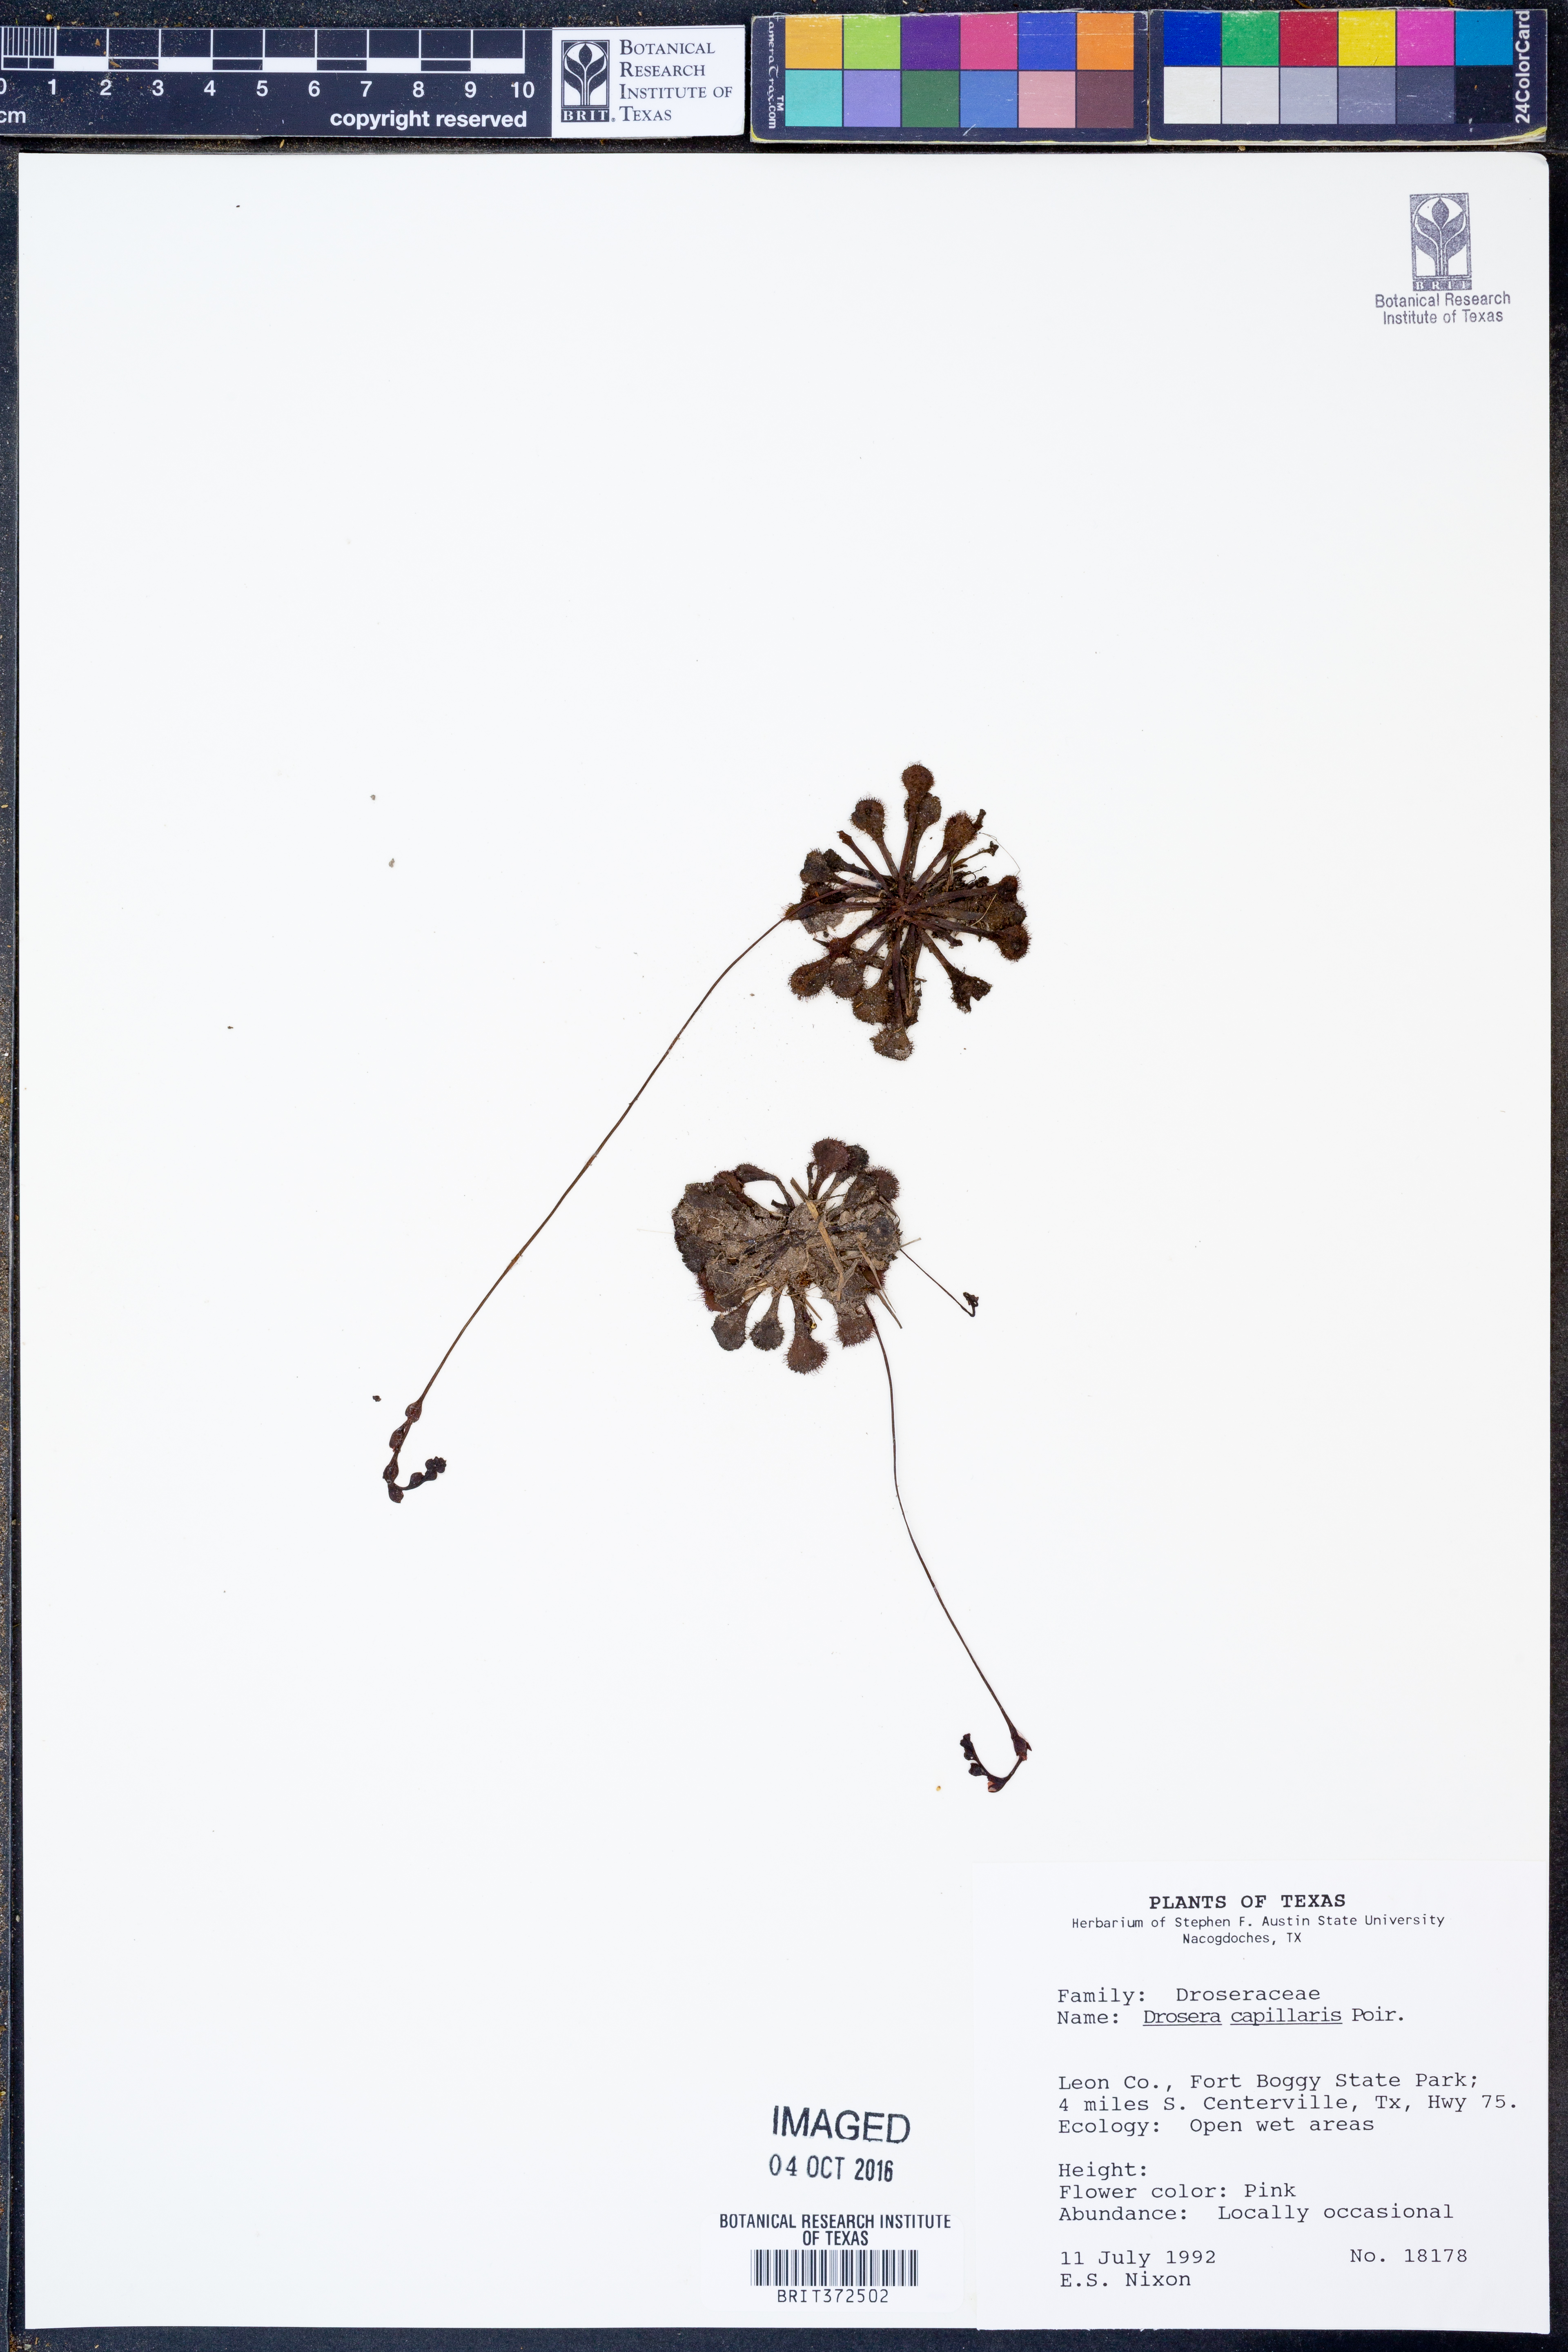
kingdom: Plantae
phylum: Tracheophyta
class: Magnoliopsida
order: Caryophyllales
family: Droseraceae
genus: Drosera
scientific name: Drosera capillaris
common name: Pink sundew
